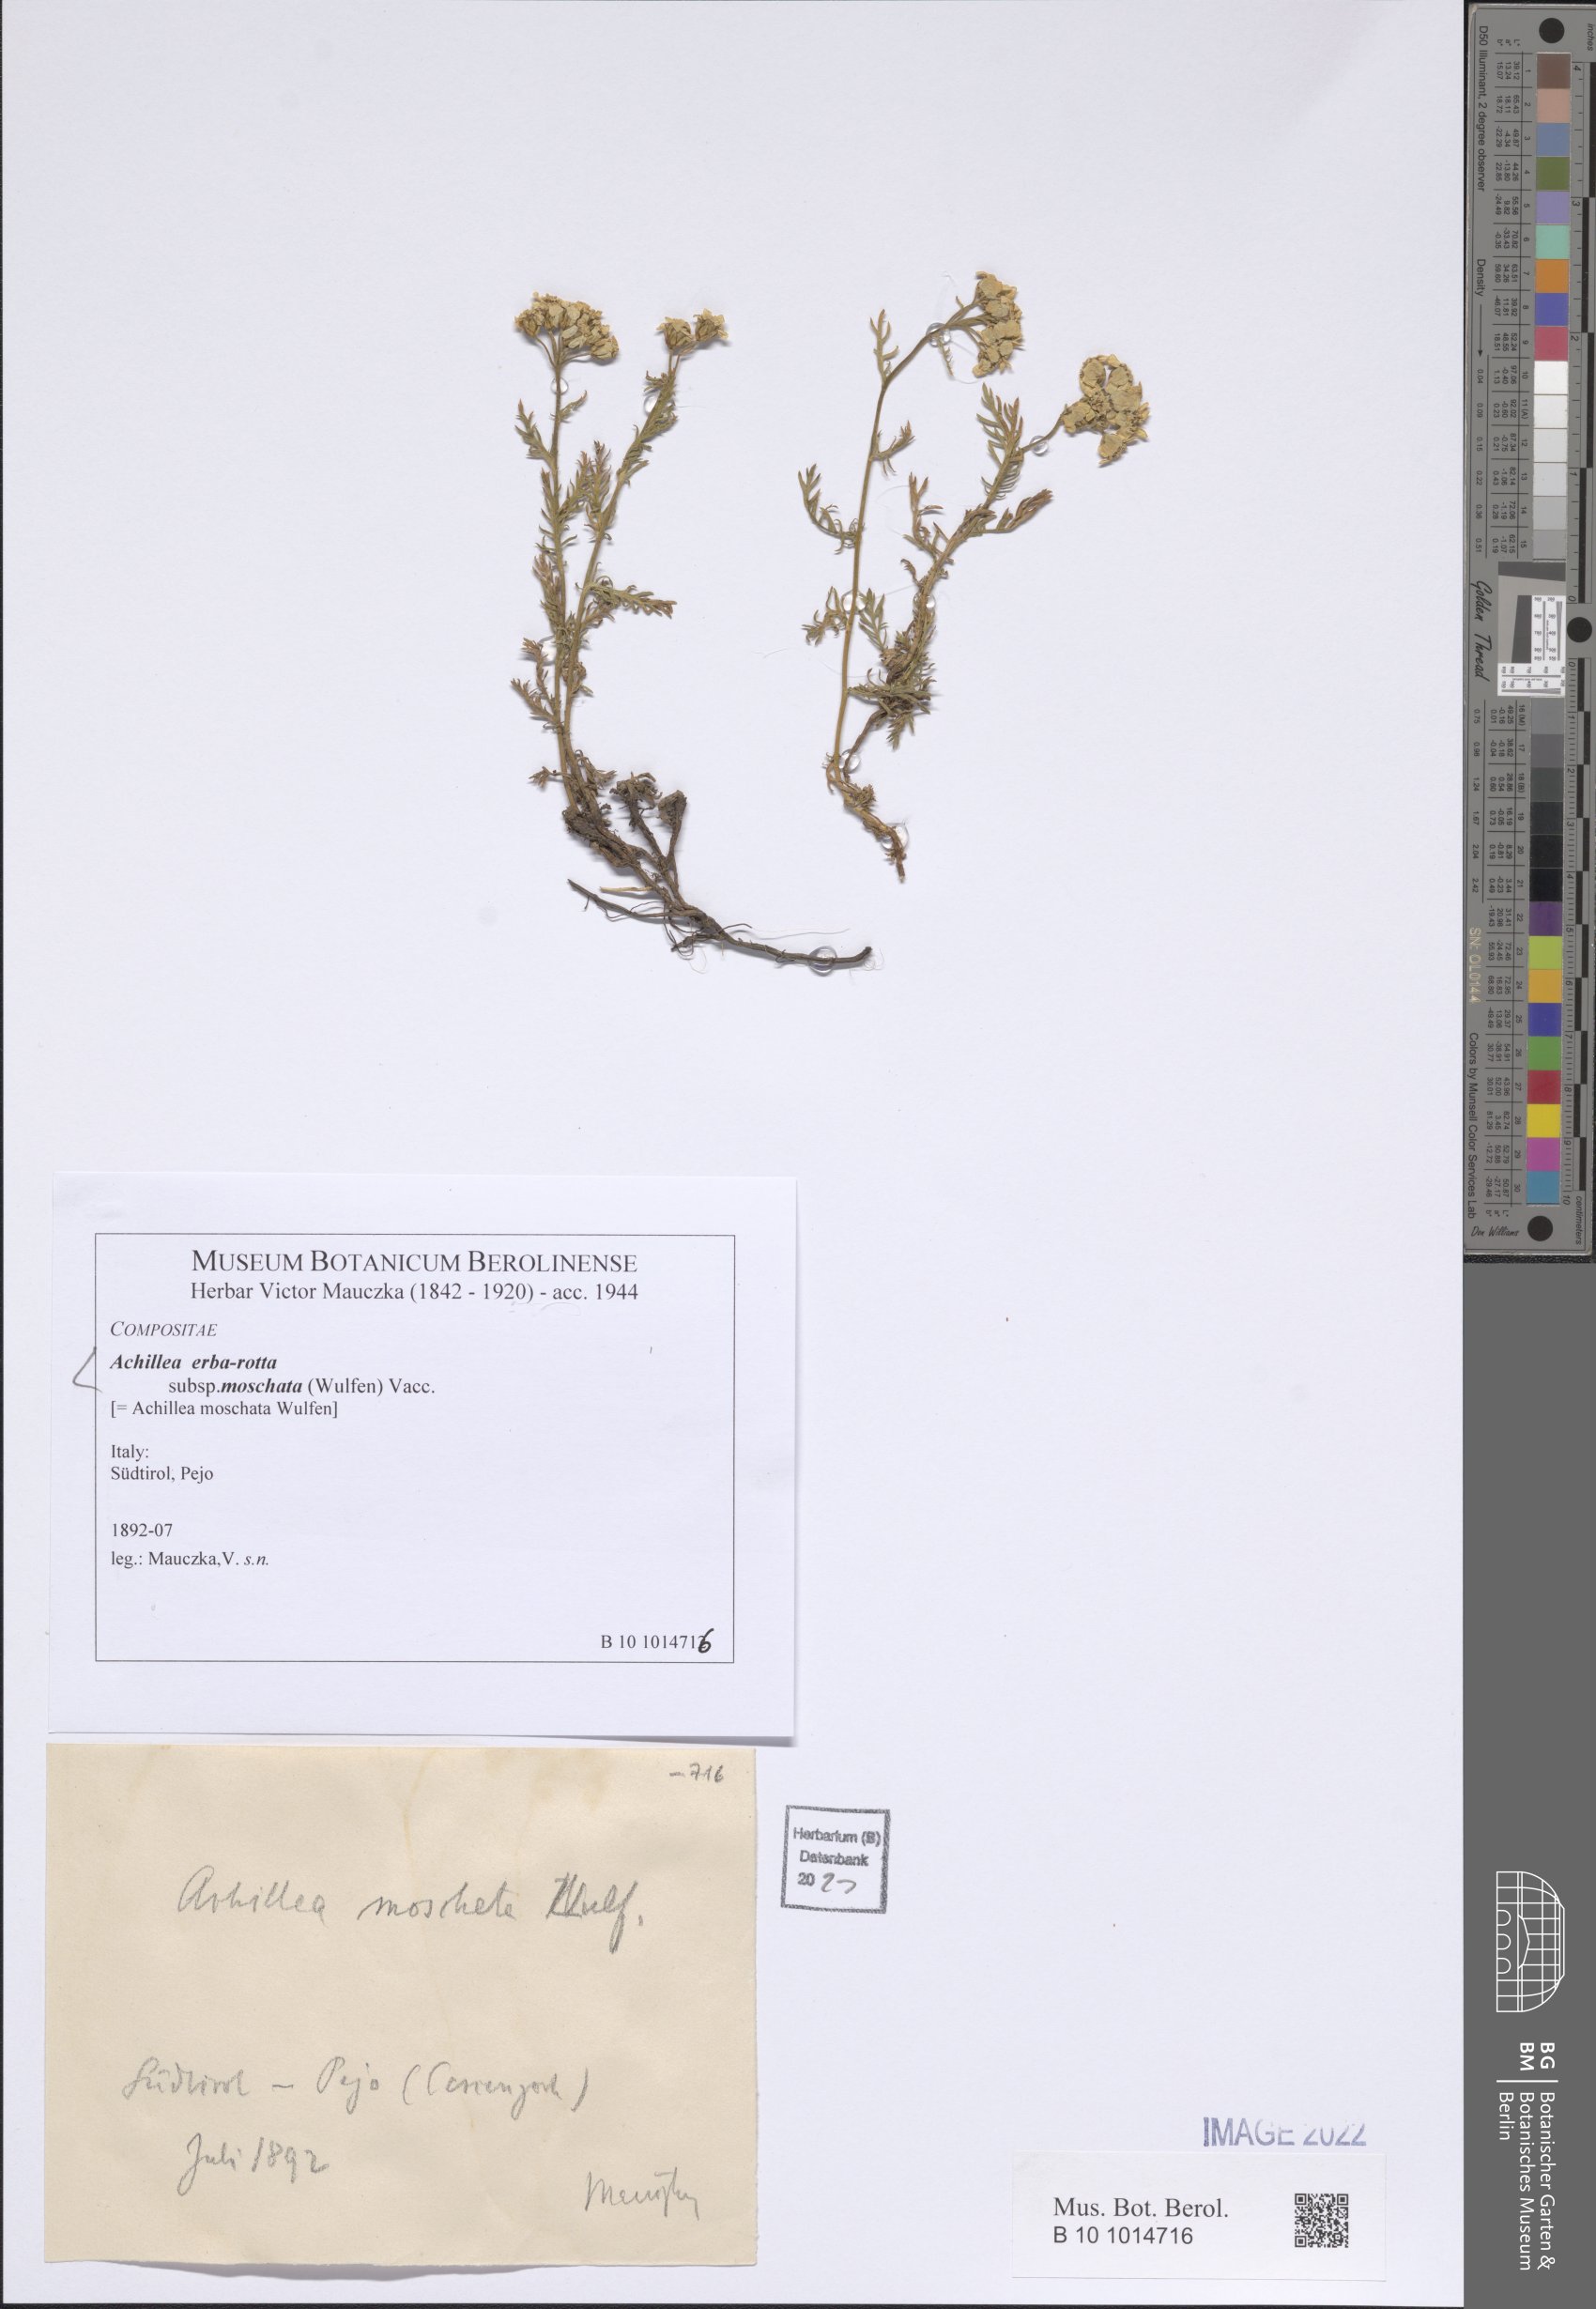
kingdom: Plantae
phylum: Tracheophyta
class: Magnoliopsida
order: Asterales
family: Asteraceae
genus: Achillea
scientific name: Achillea erba-rotta
